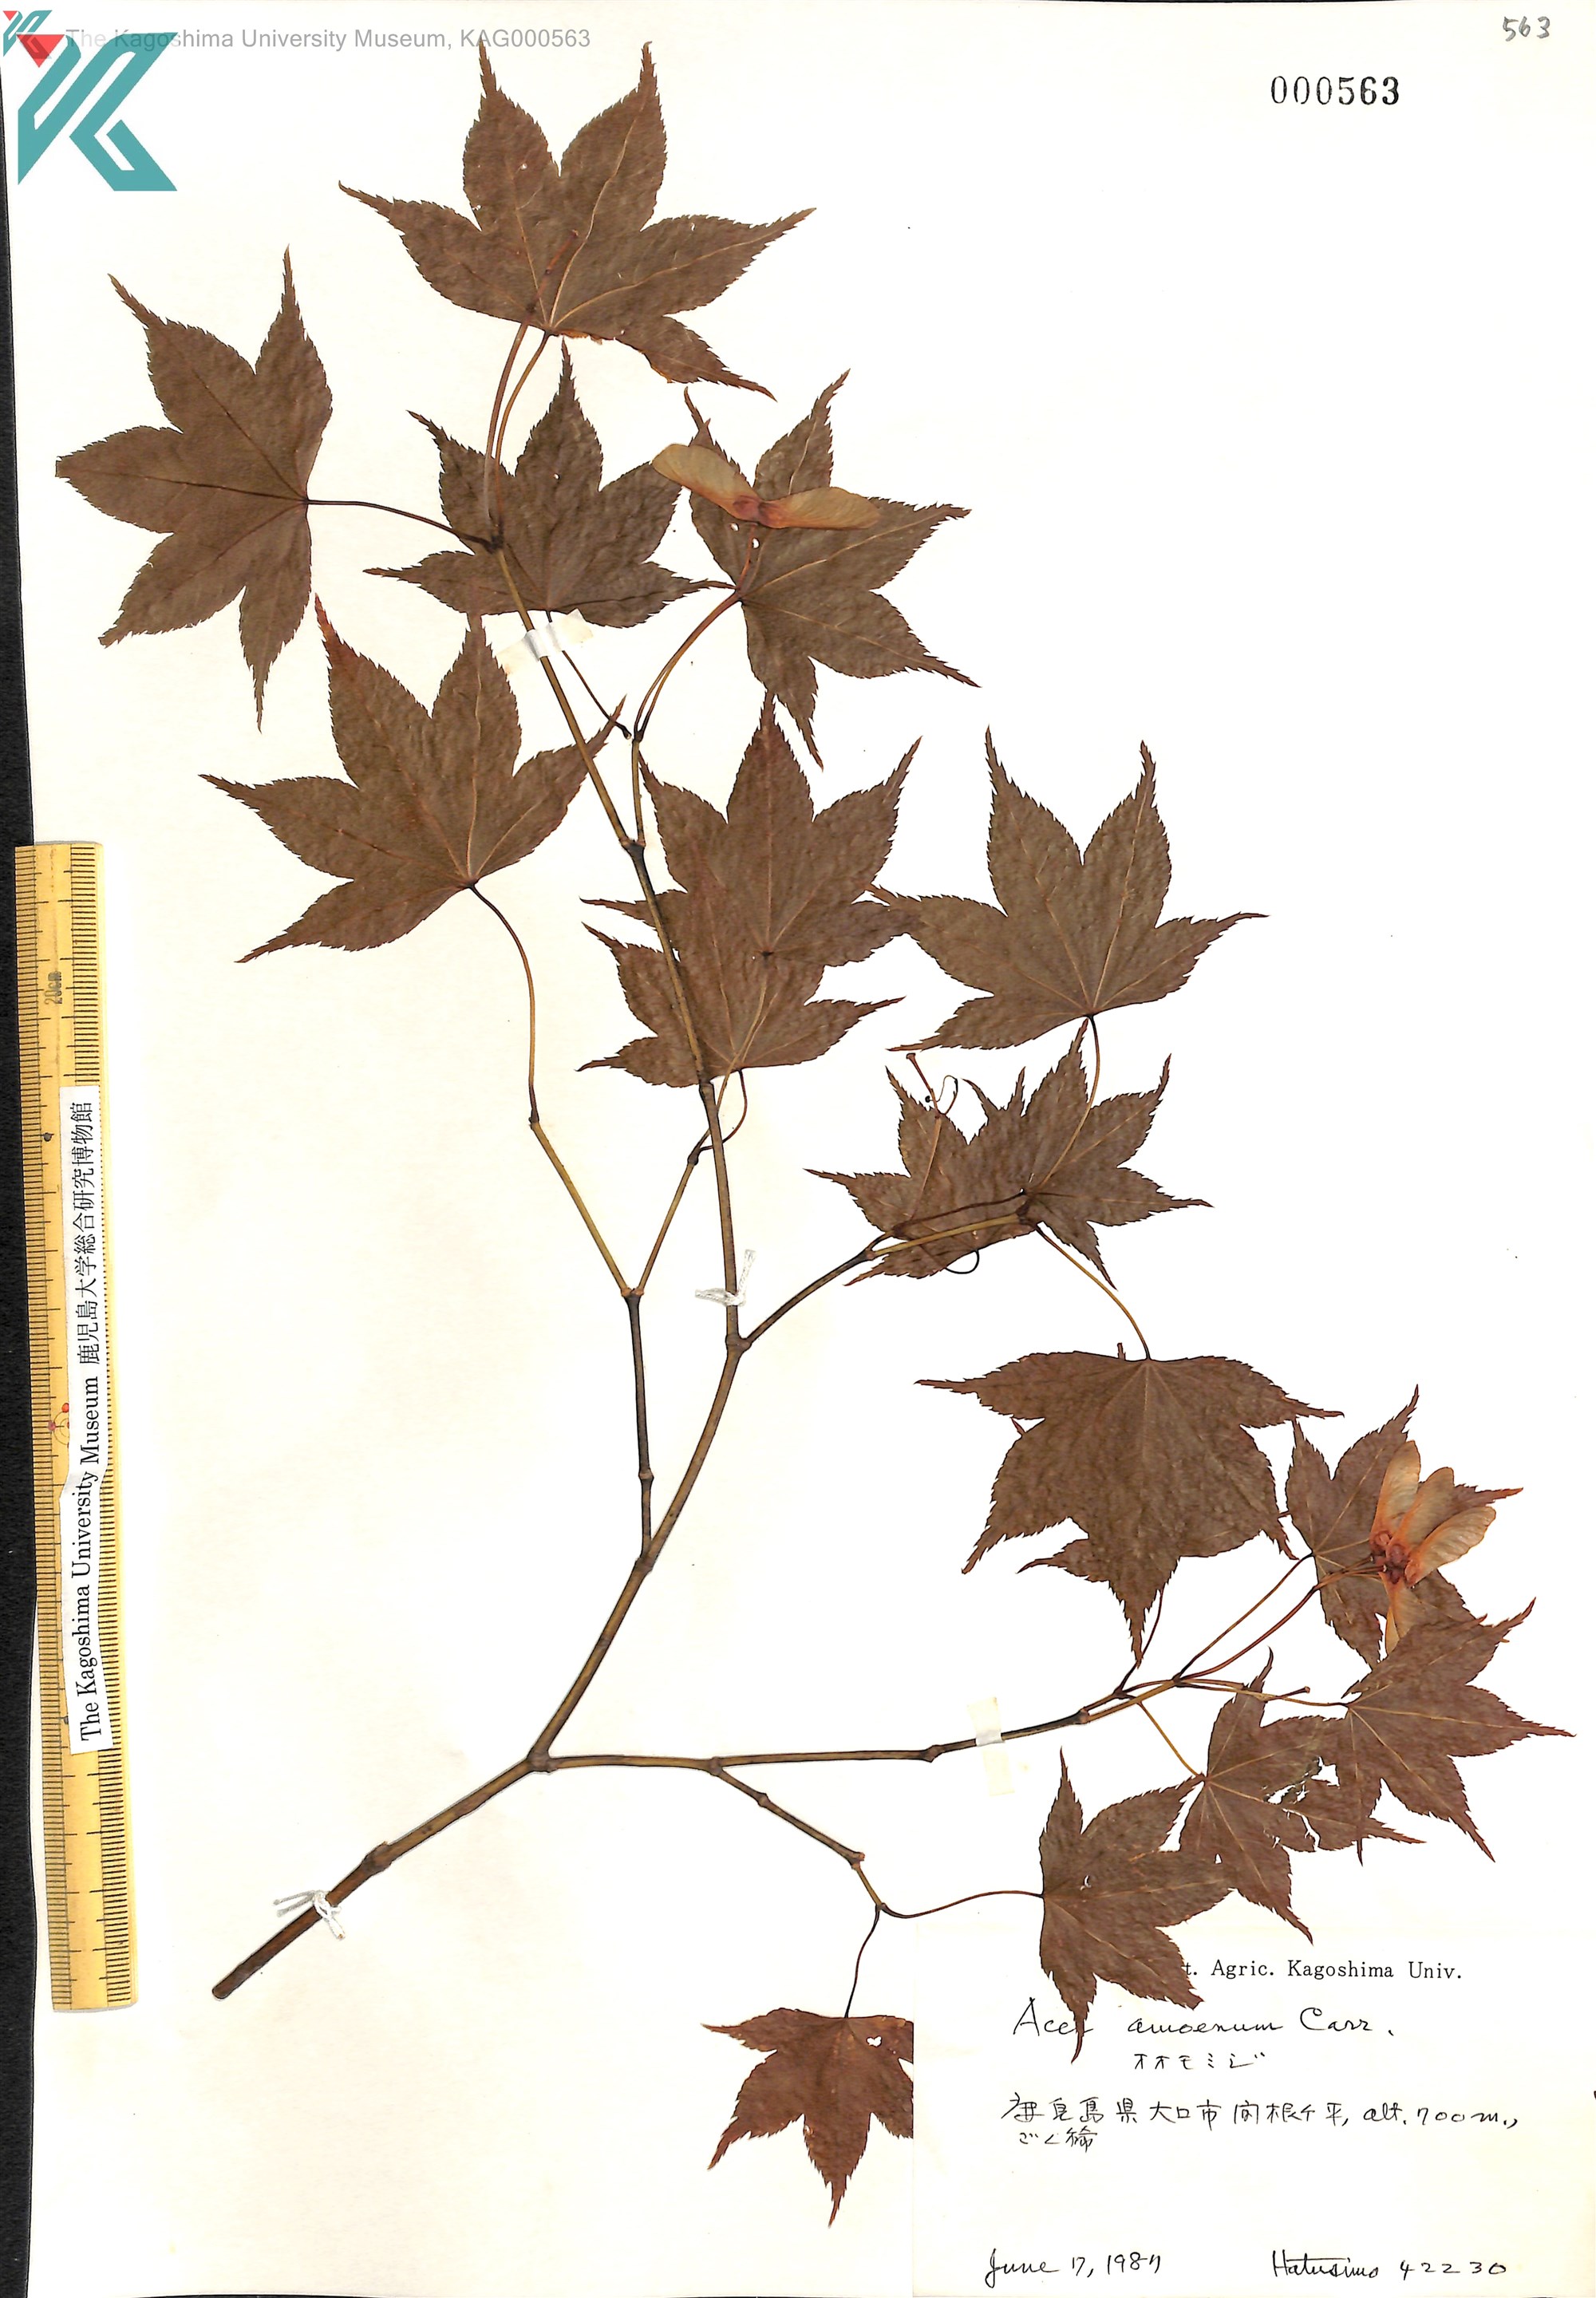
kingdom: Plantae
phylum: Tracheophyta
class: Magnoliopsida
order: Sapindales
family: Sapindaceae
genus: Acer
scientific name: Acer palmatum
